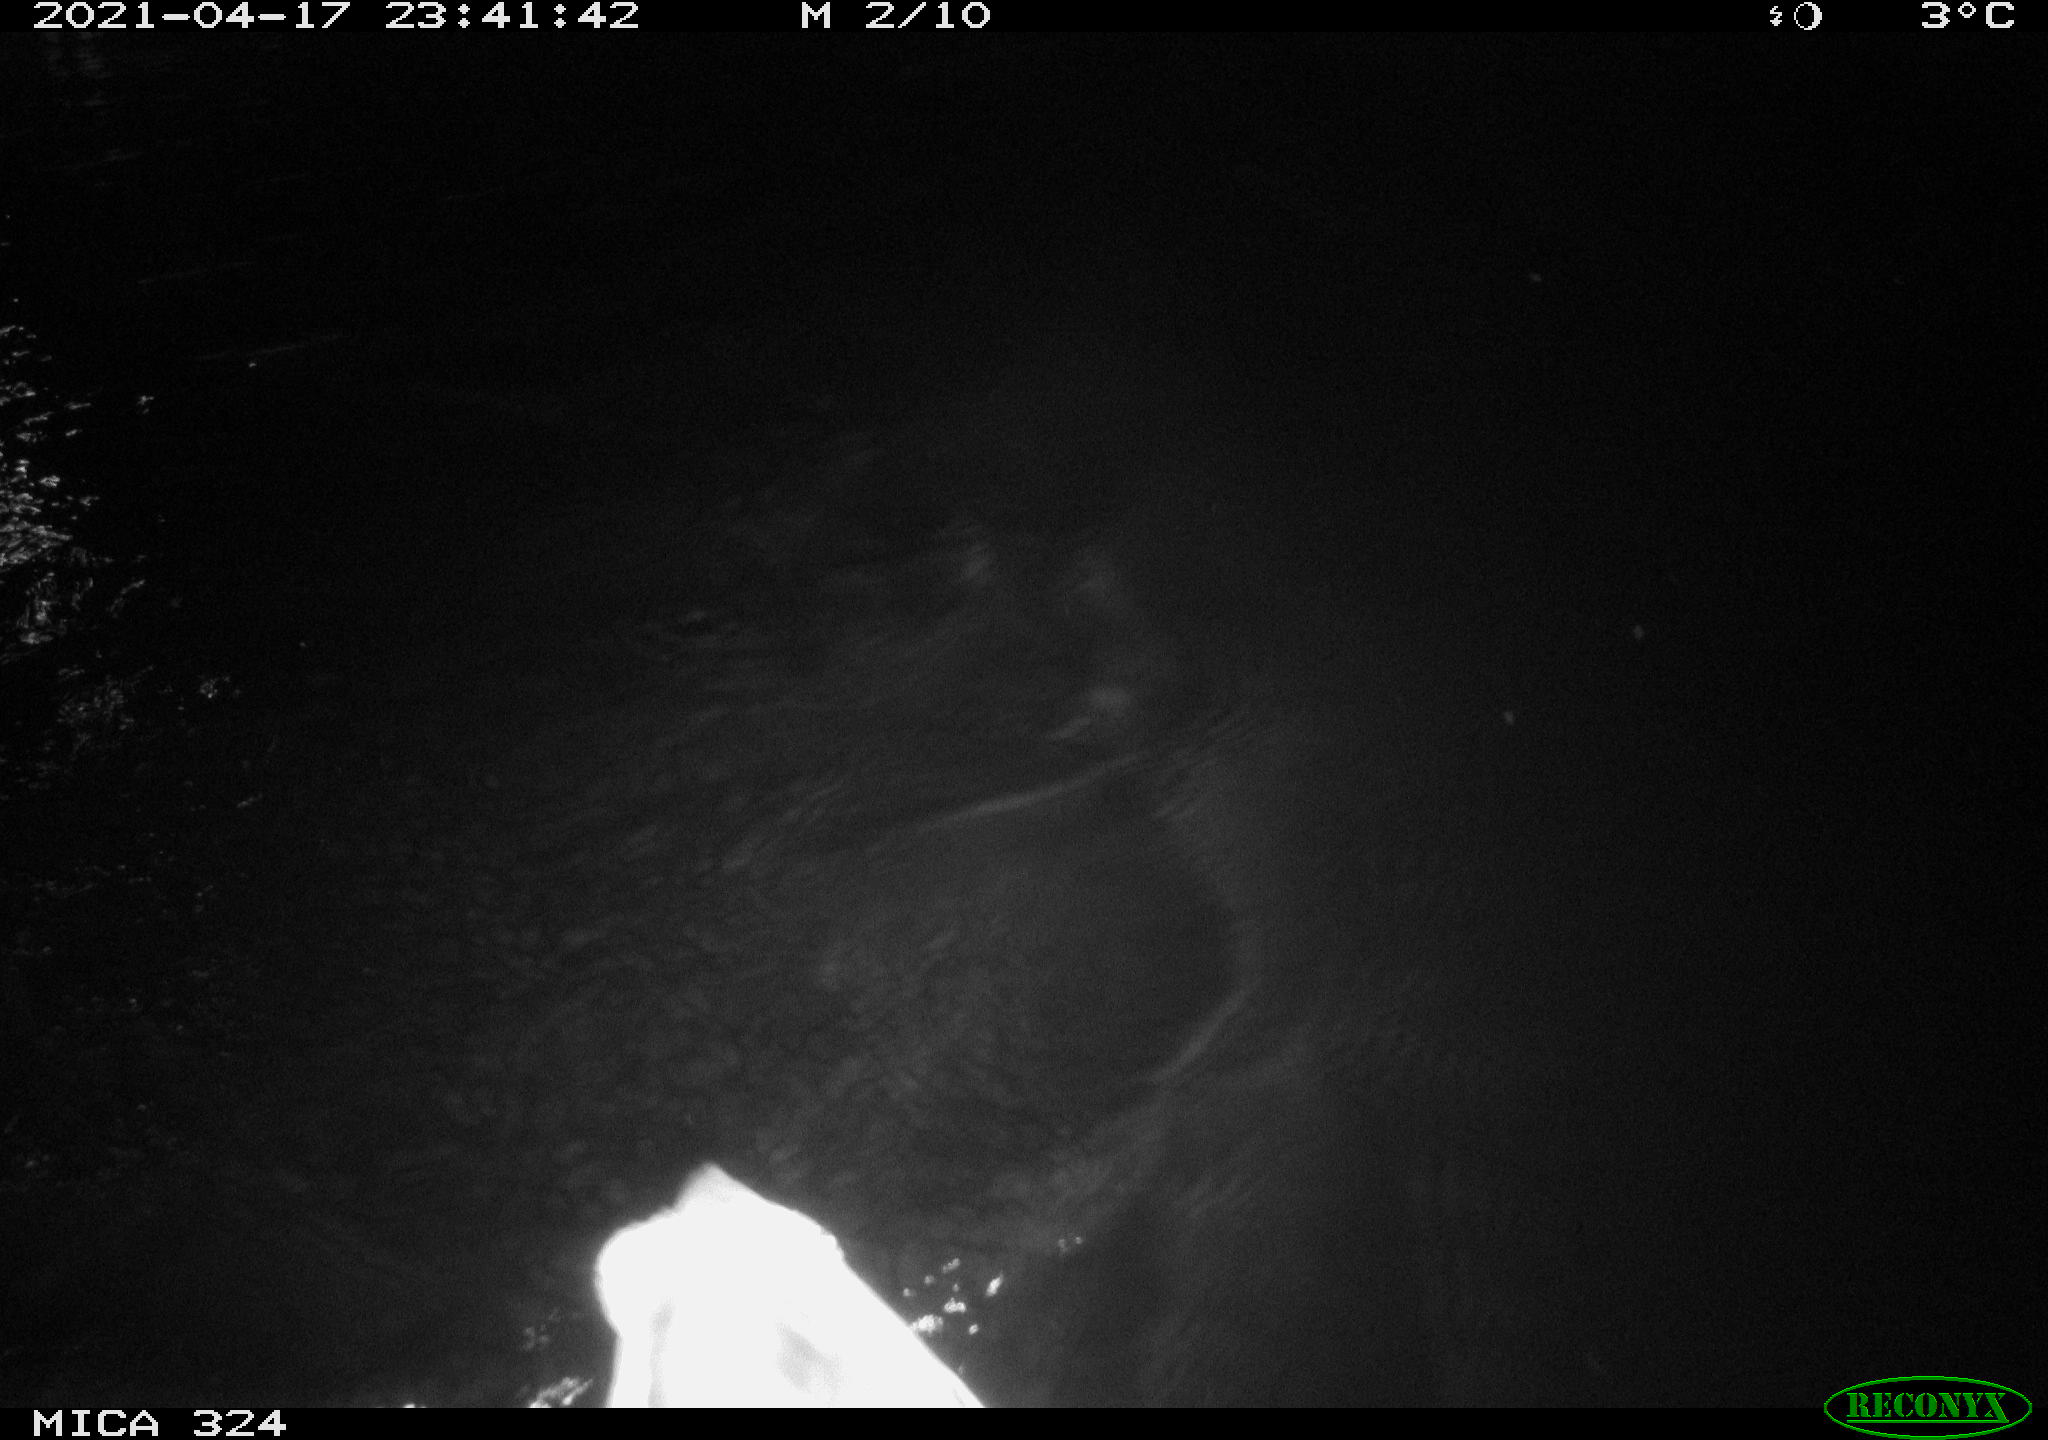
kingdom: Animalia
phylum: Chordata
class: Aves
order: Anseriformes
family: Anatidae
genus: Anas
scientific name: Anas platyrhynchos
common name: Mallard
